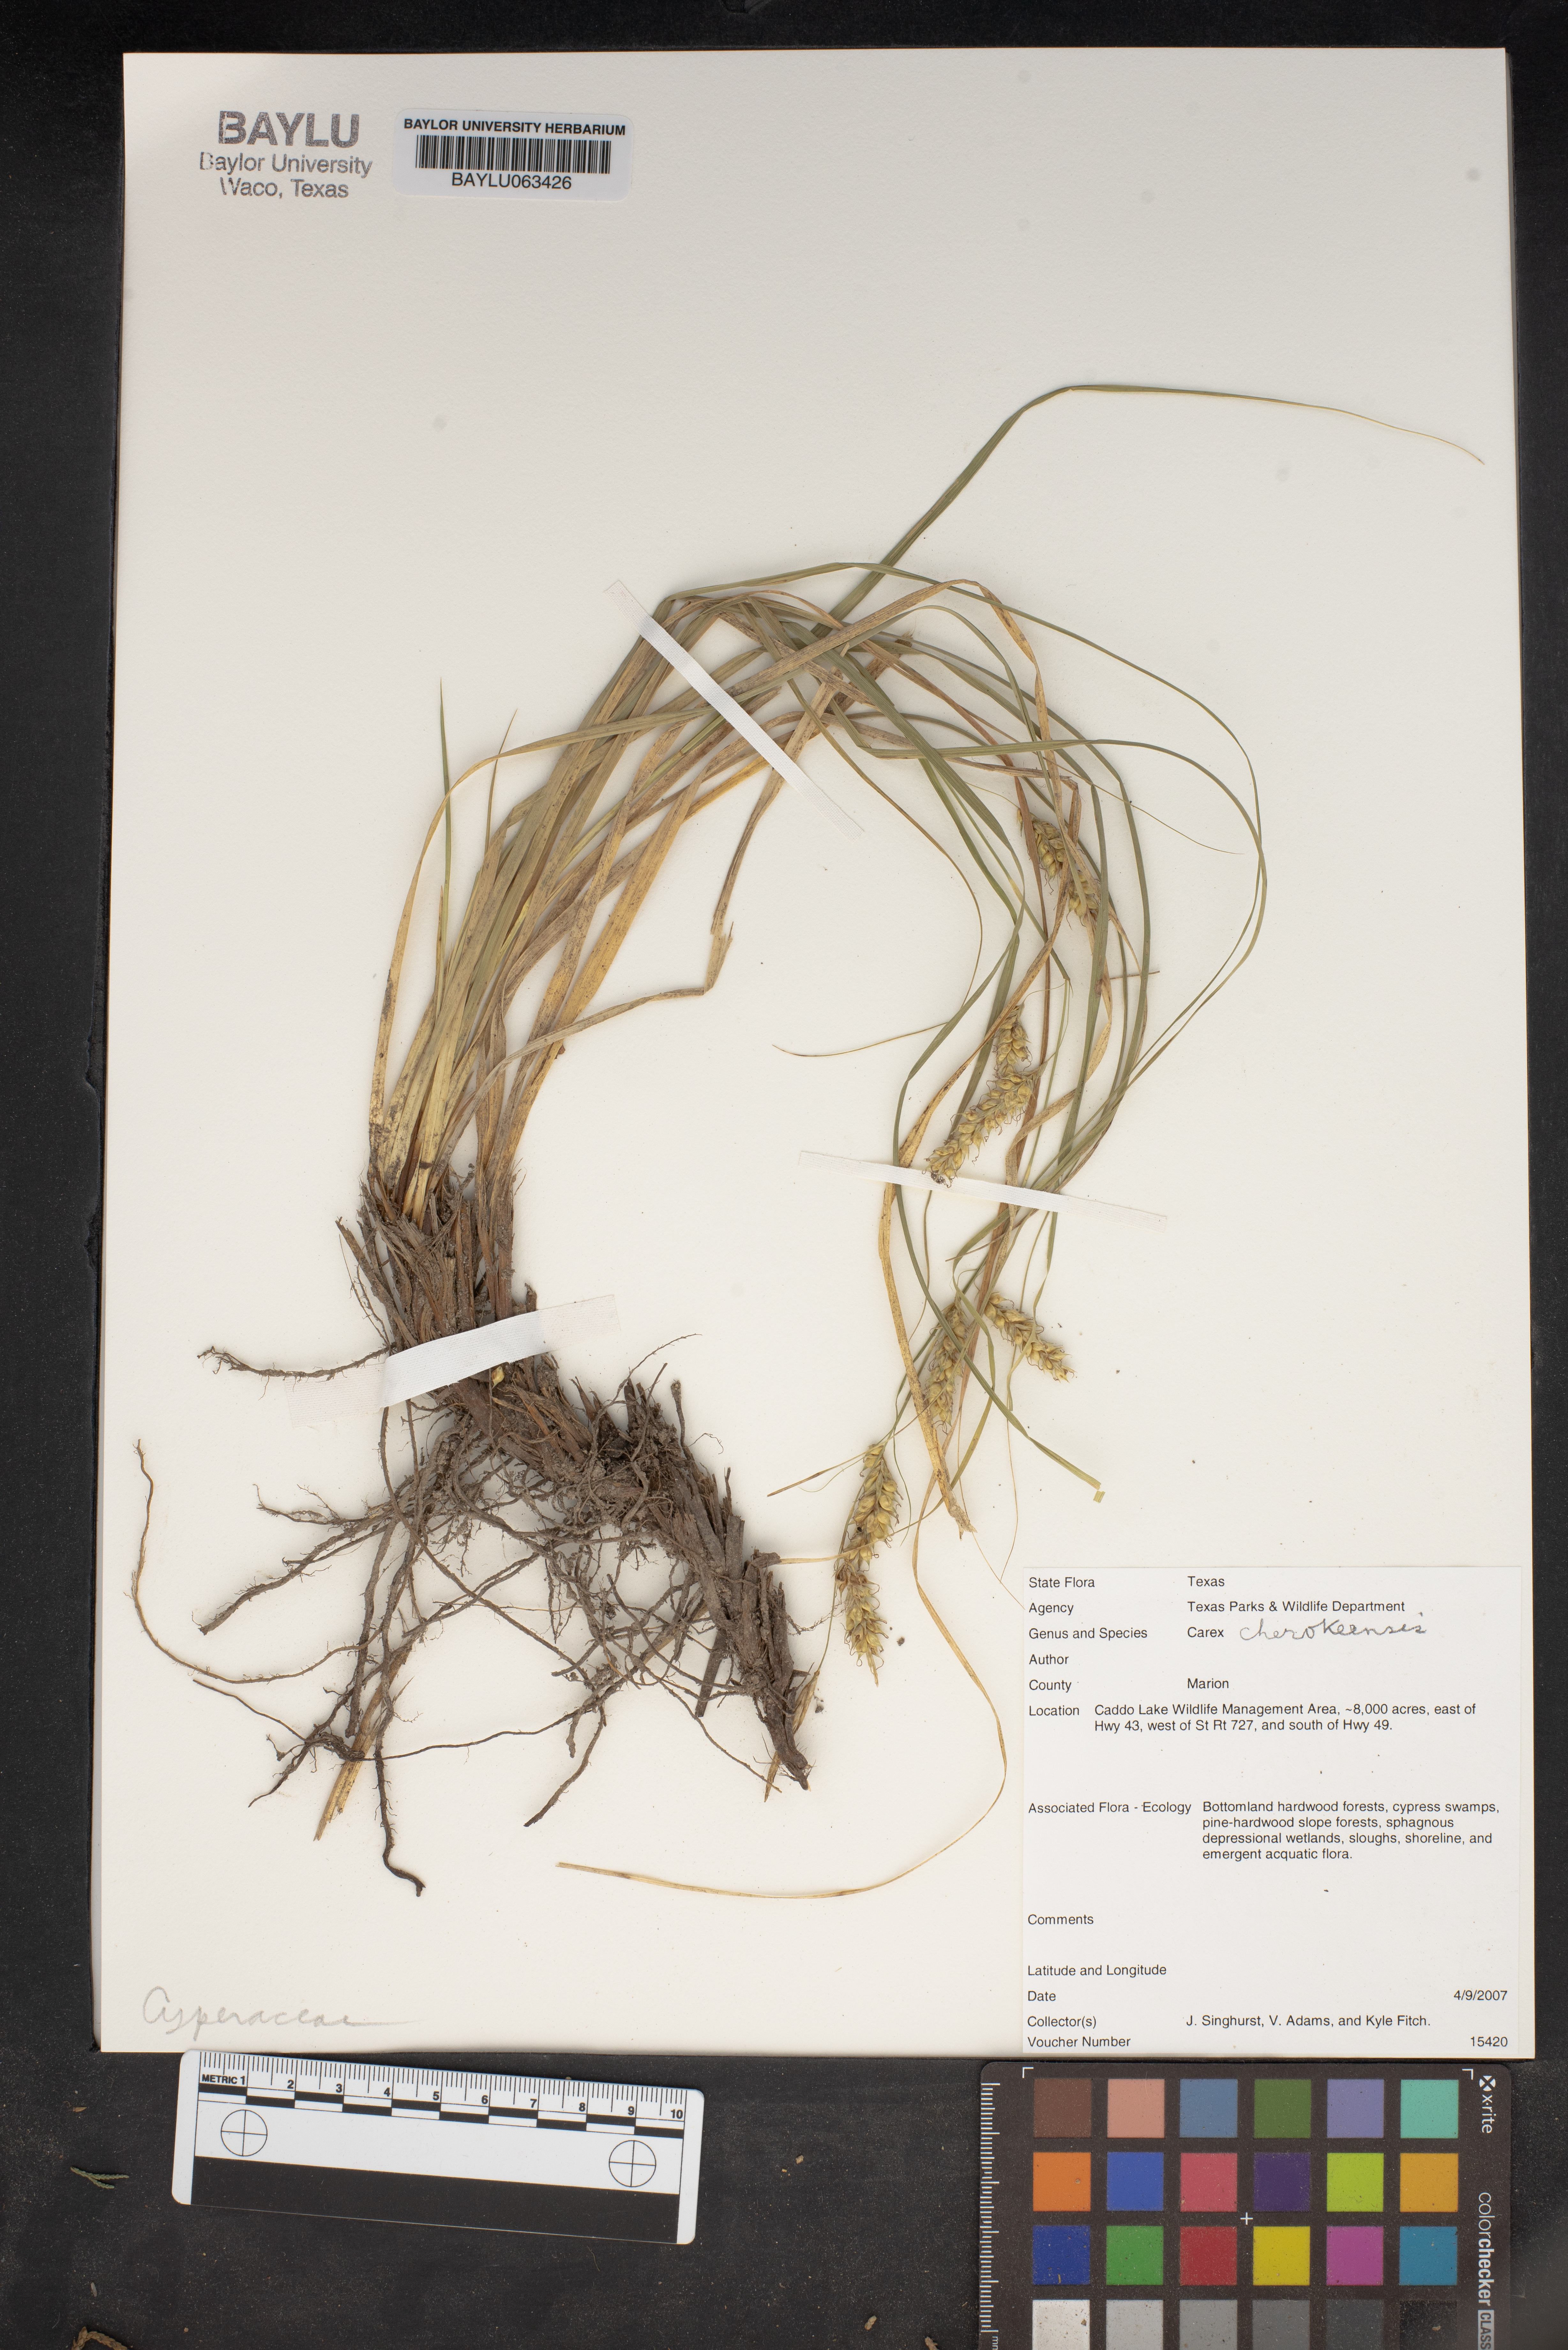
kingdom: Plantae
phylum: Tracheophyta
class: Liliopsida
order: Poales
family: Cyperaceae
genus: Carex
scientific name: Carex cherokeensis
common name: Cherokee sedge
